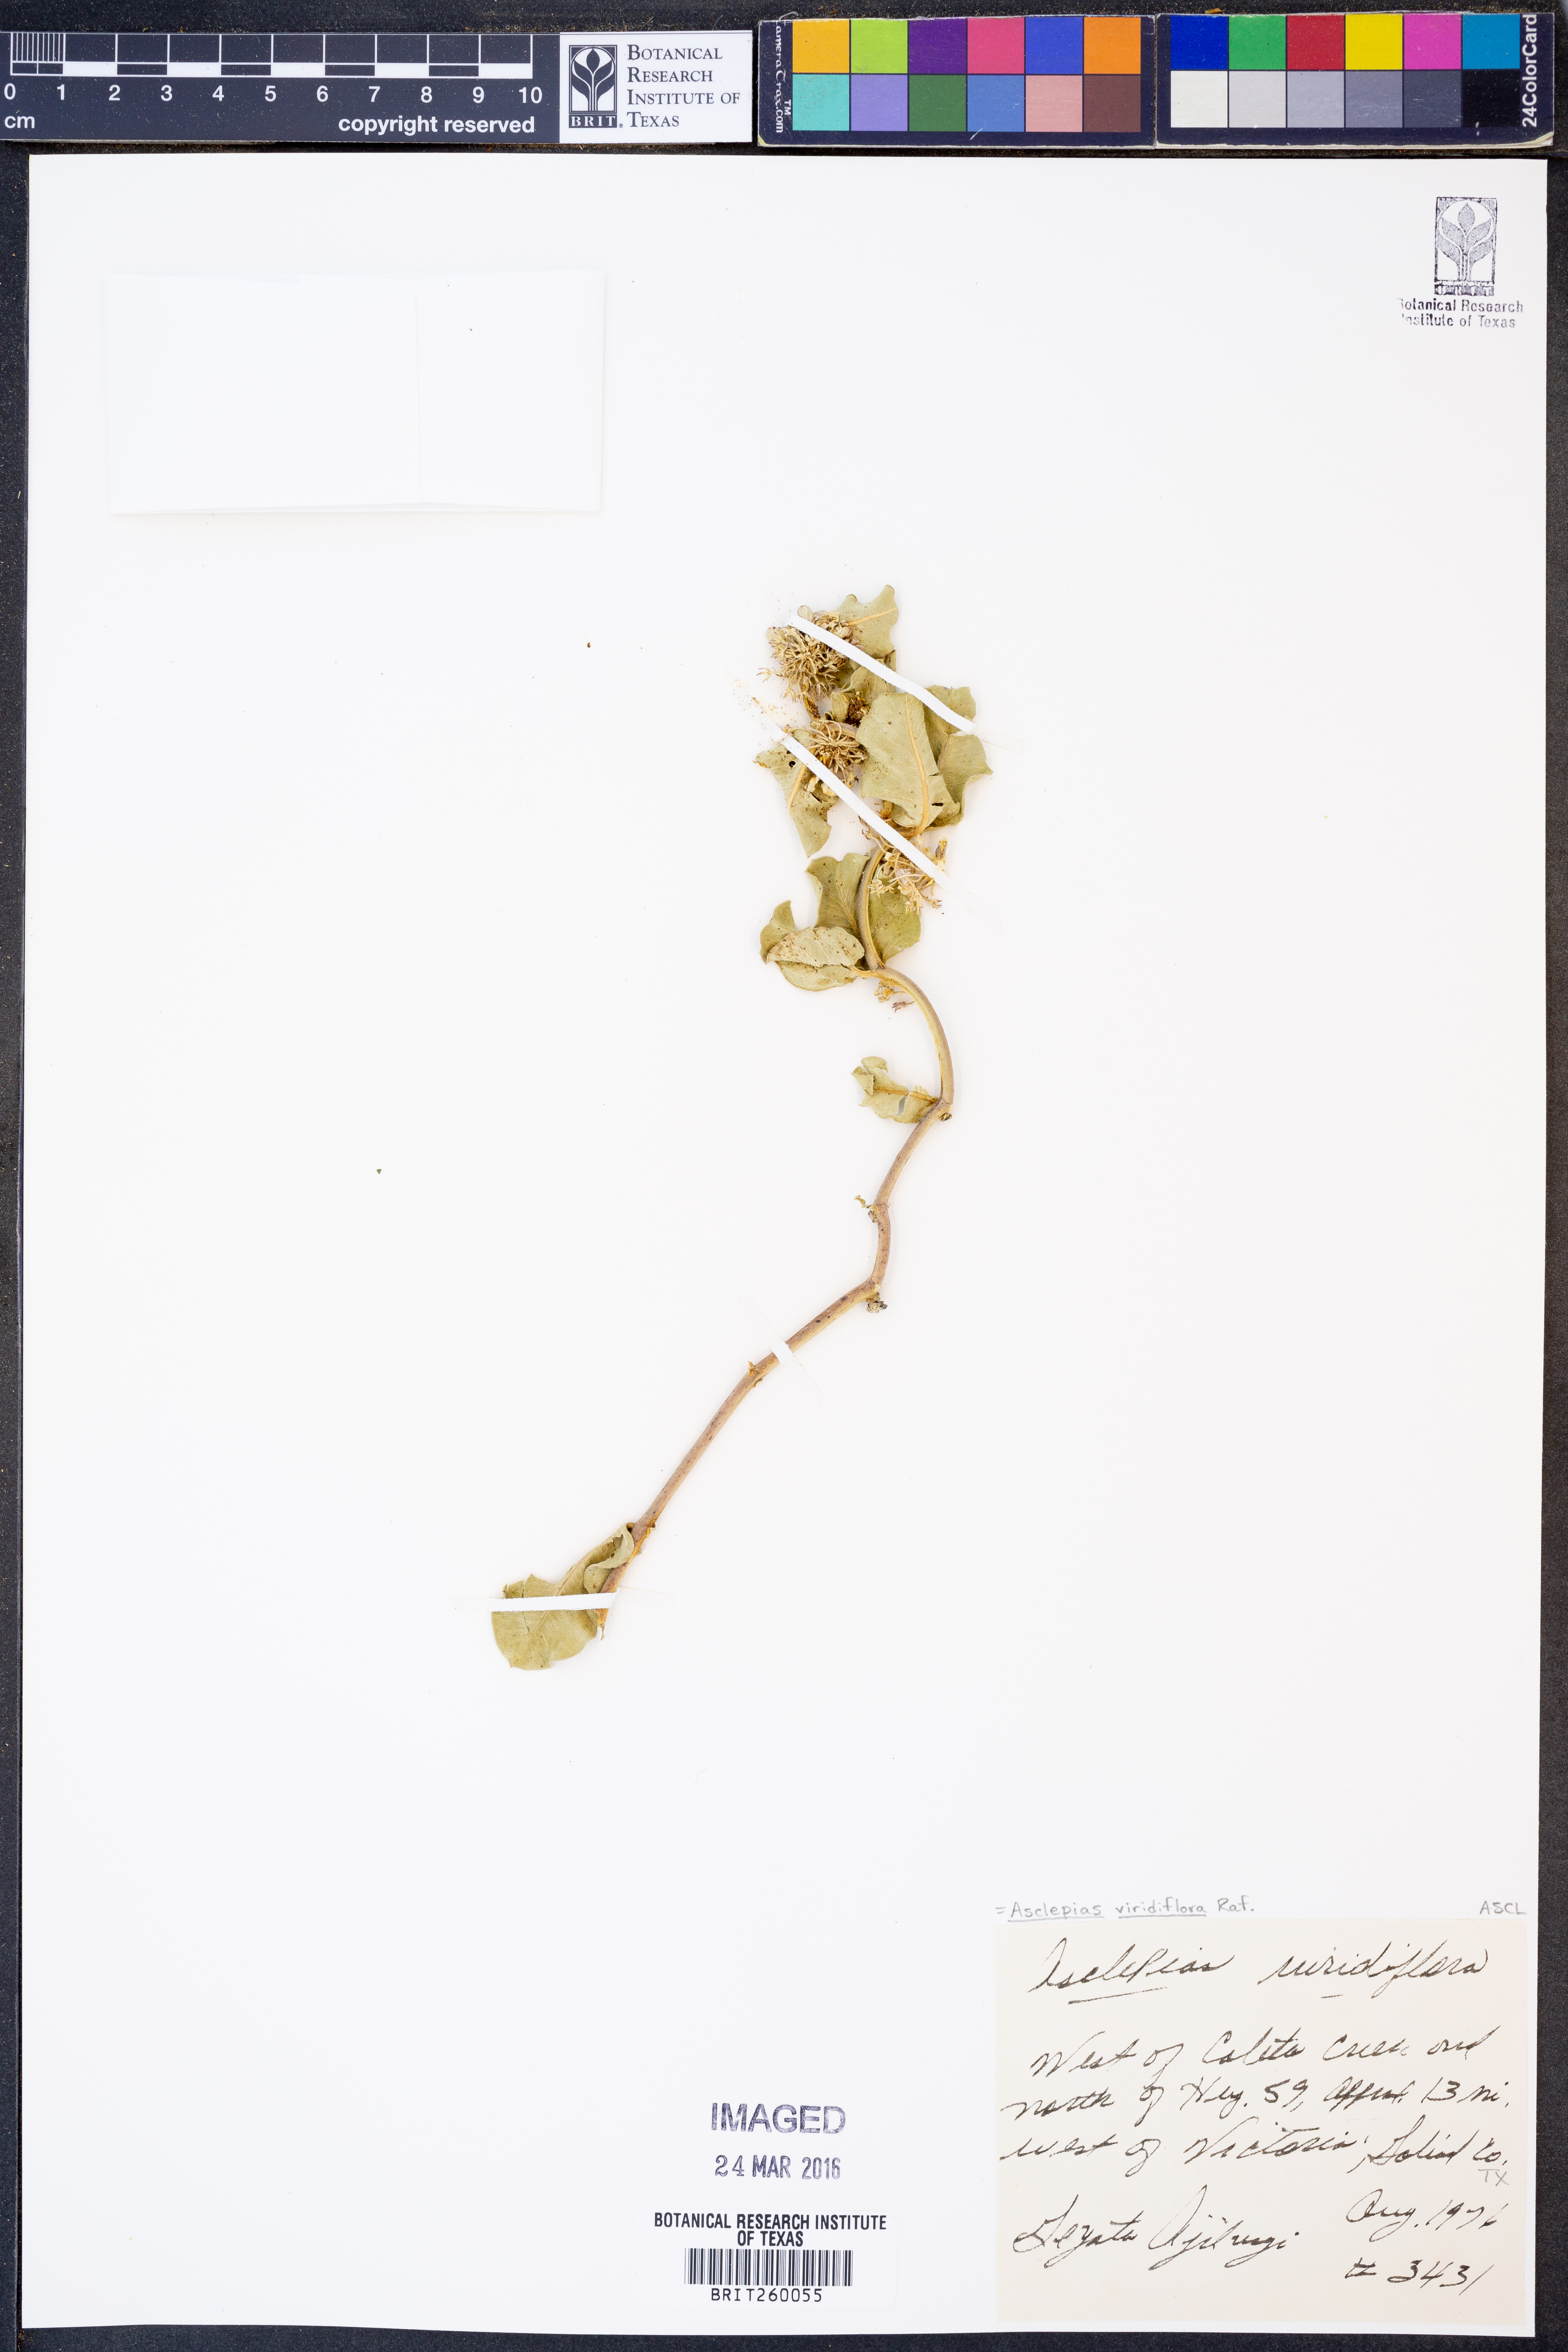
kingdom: Plantae
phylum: Tracheophyta
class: Magnoliopsida
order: Gentianales
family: Apocynaceae
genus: Asclepias
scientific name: Asclepias viridiflora
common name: Green comet milkweed
